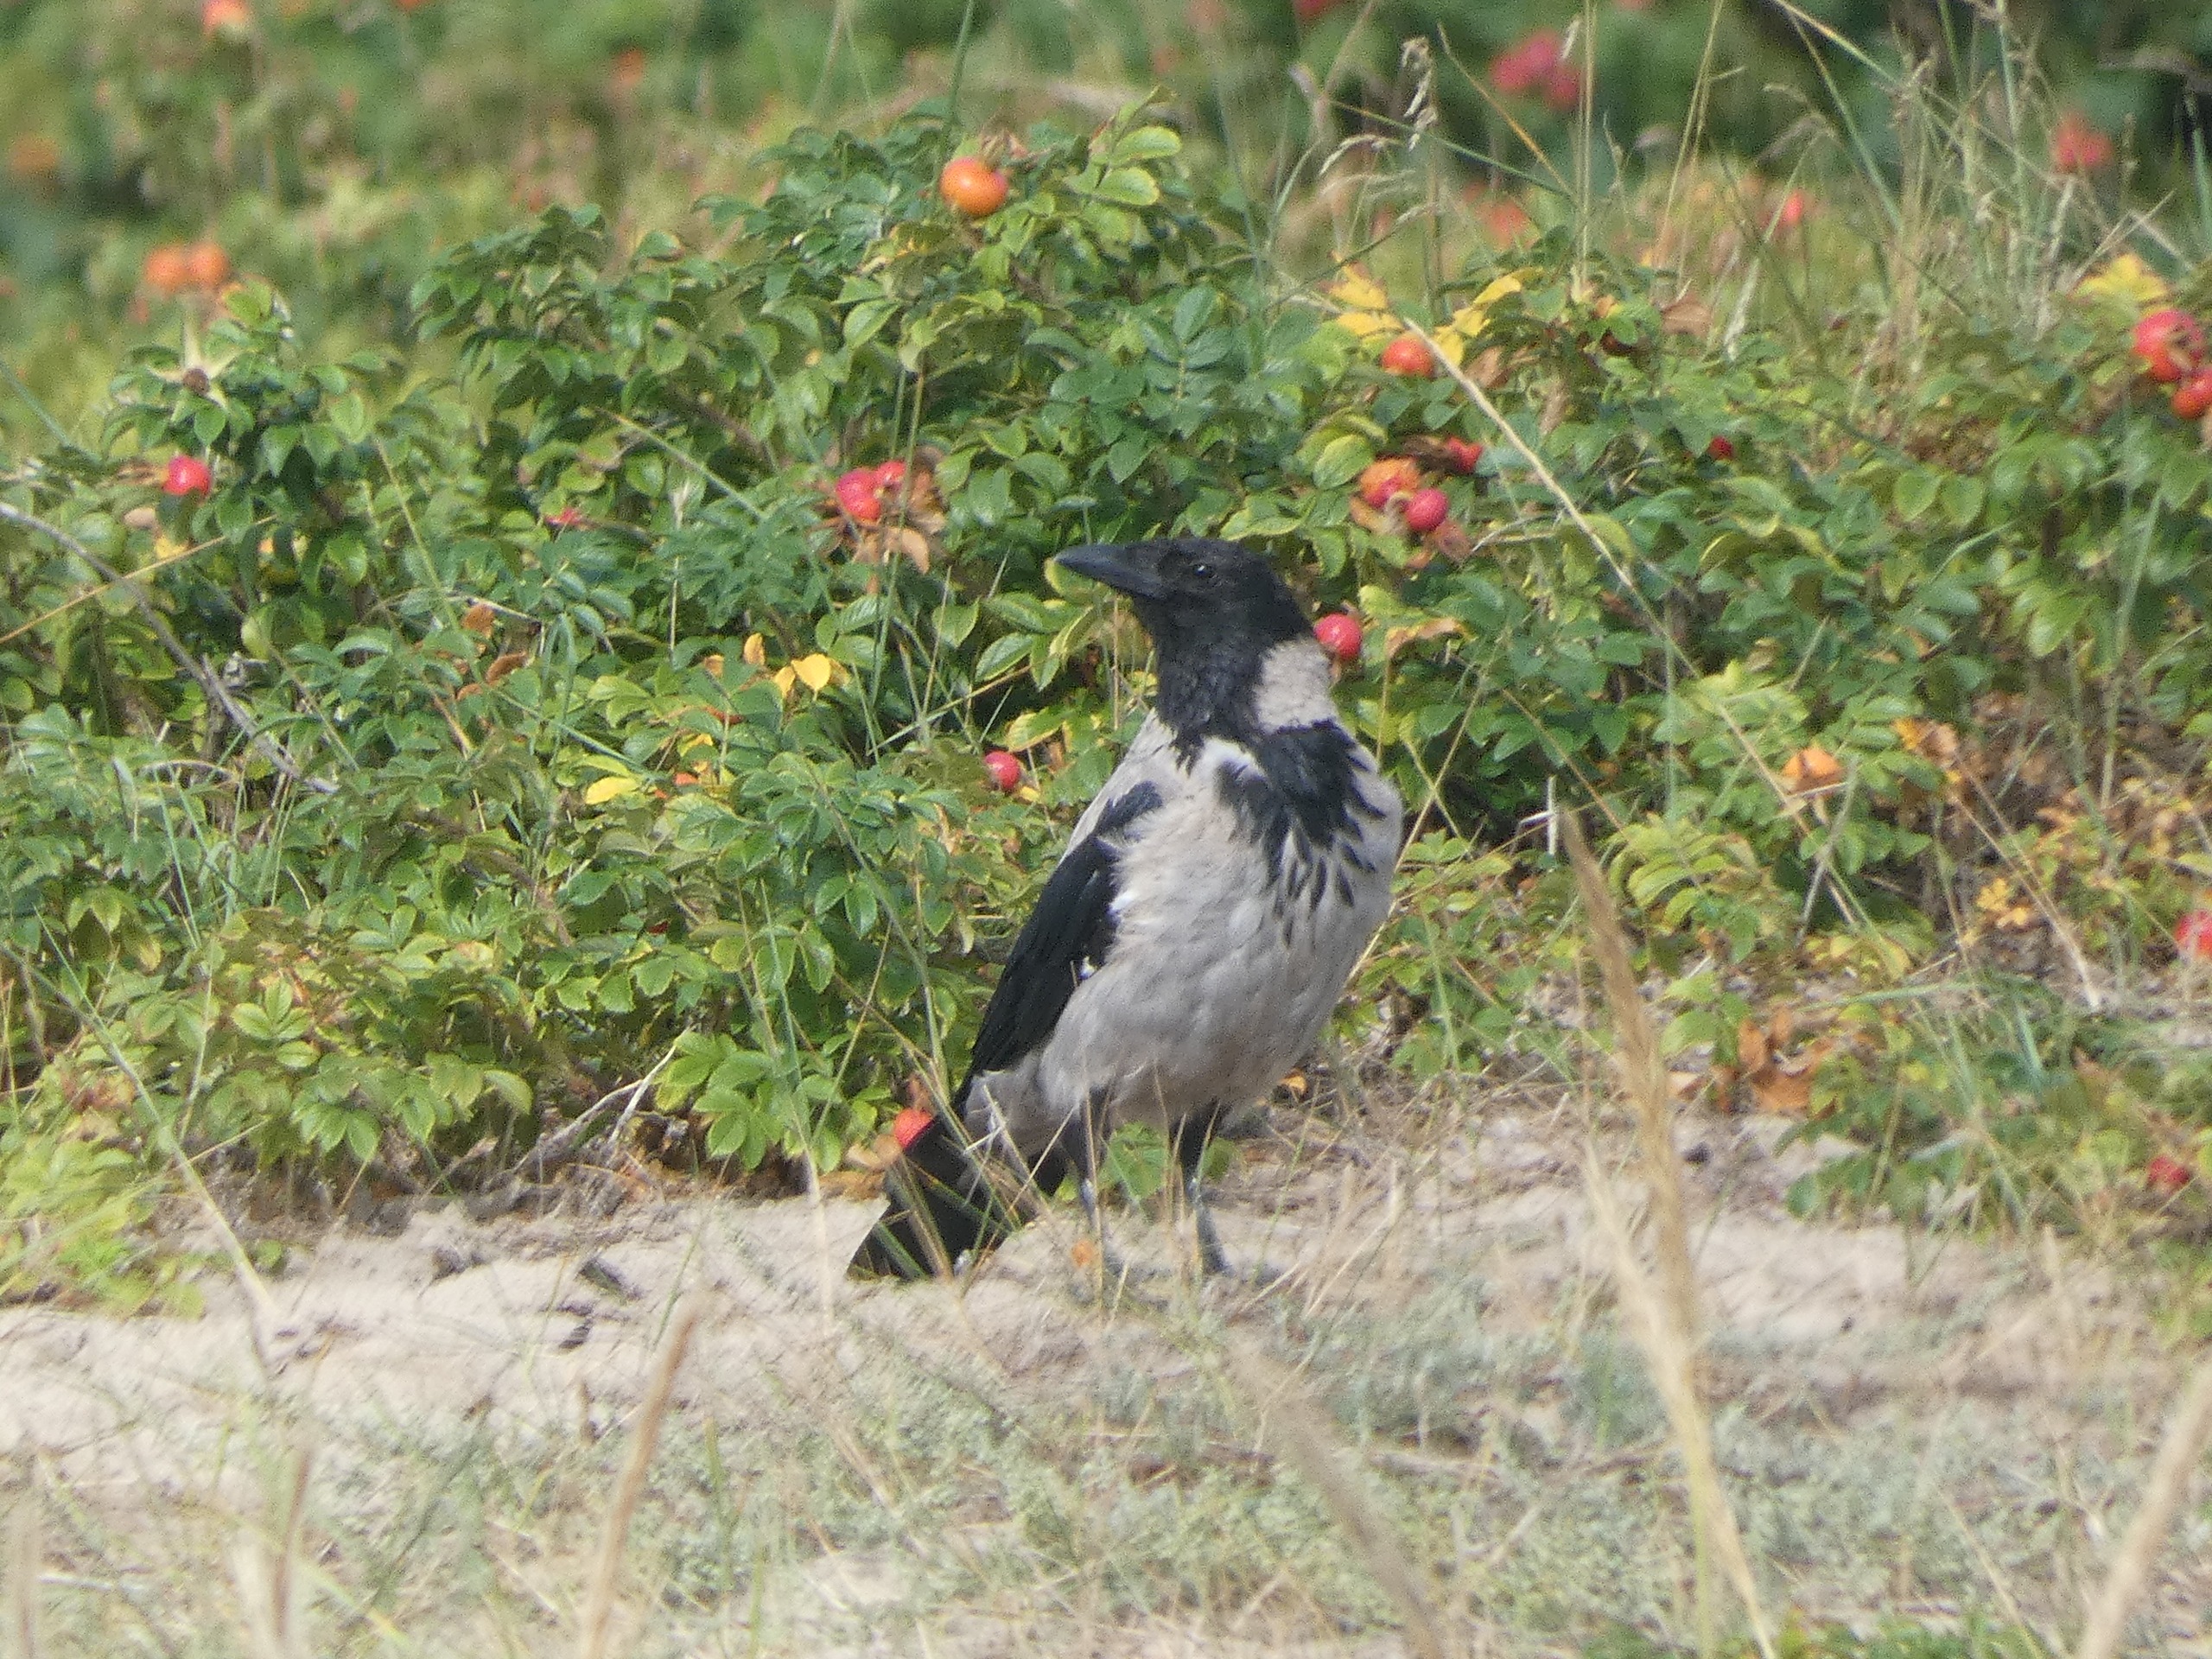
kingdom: Animalia
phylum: Chordata
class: Aves
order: Passeriformes
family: Corvidae
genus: Corvus
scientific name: Corvus cornix
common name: Gråkrage
